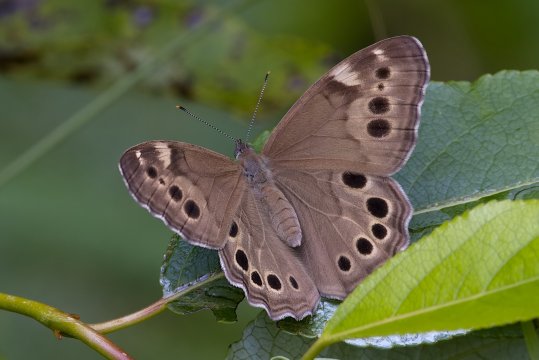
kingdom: Animalia
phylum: Arthropoda
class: Insecta
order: Lepidoptera
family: Nymphalidae
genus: Lethe
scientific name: Lethe anthedon
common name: Northern Pearly-Eye
